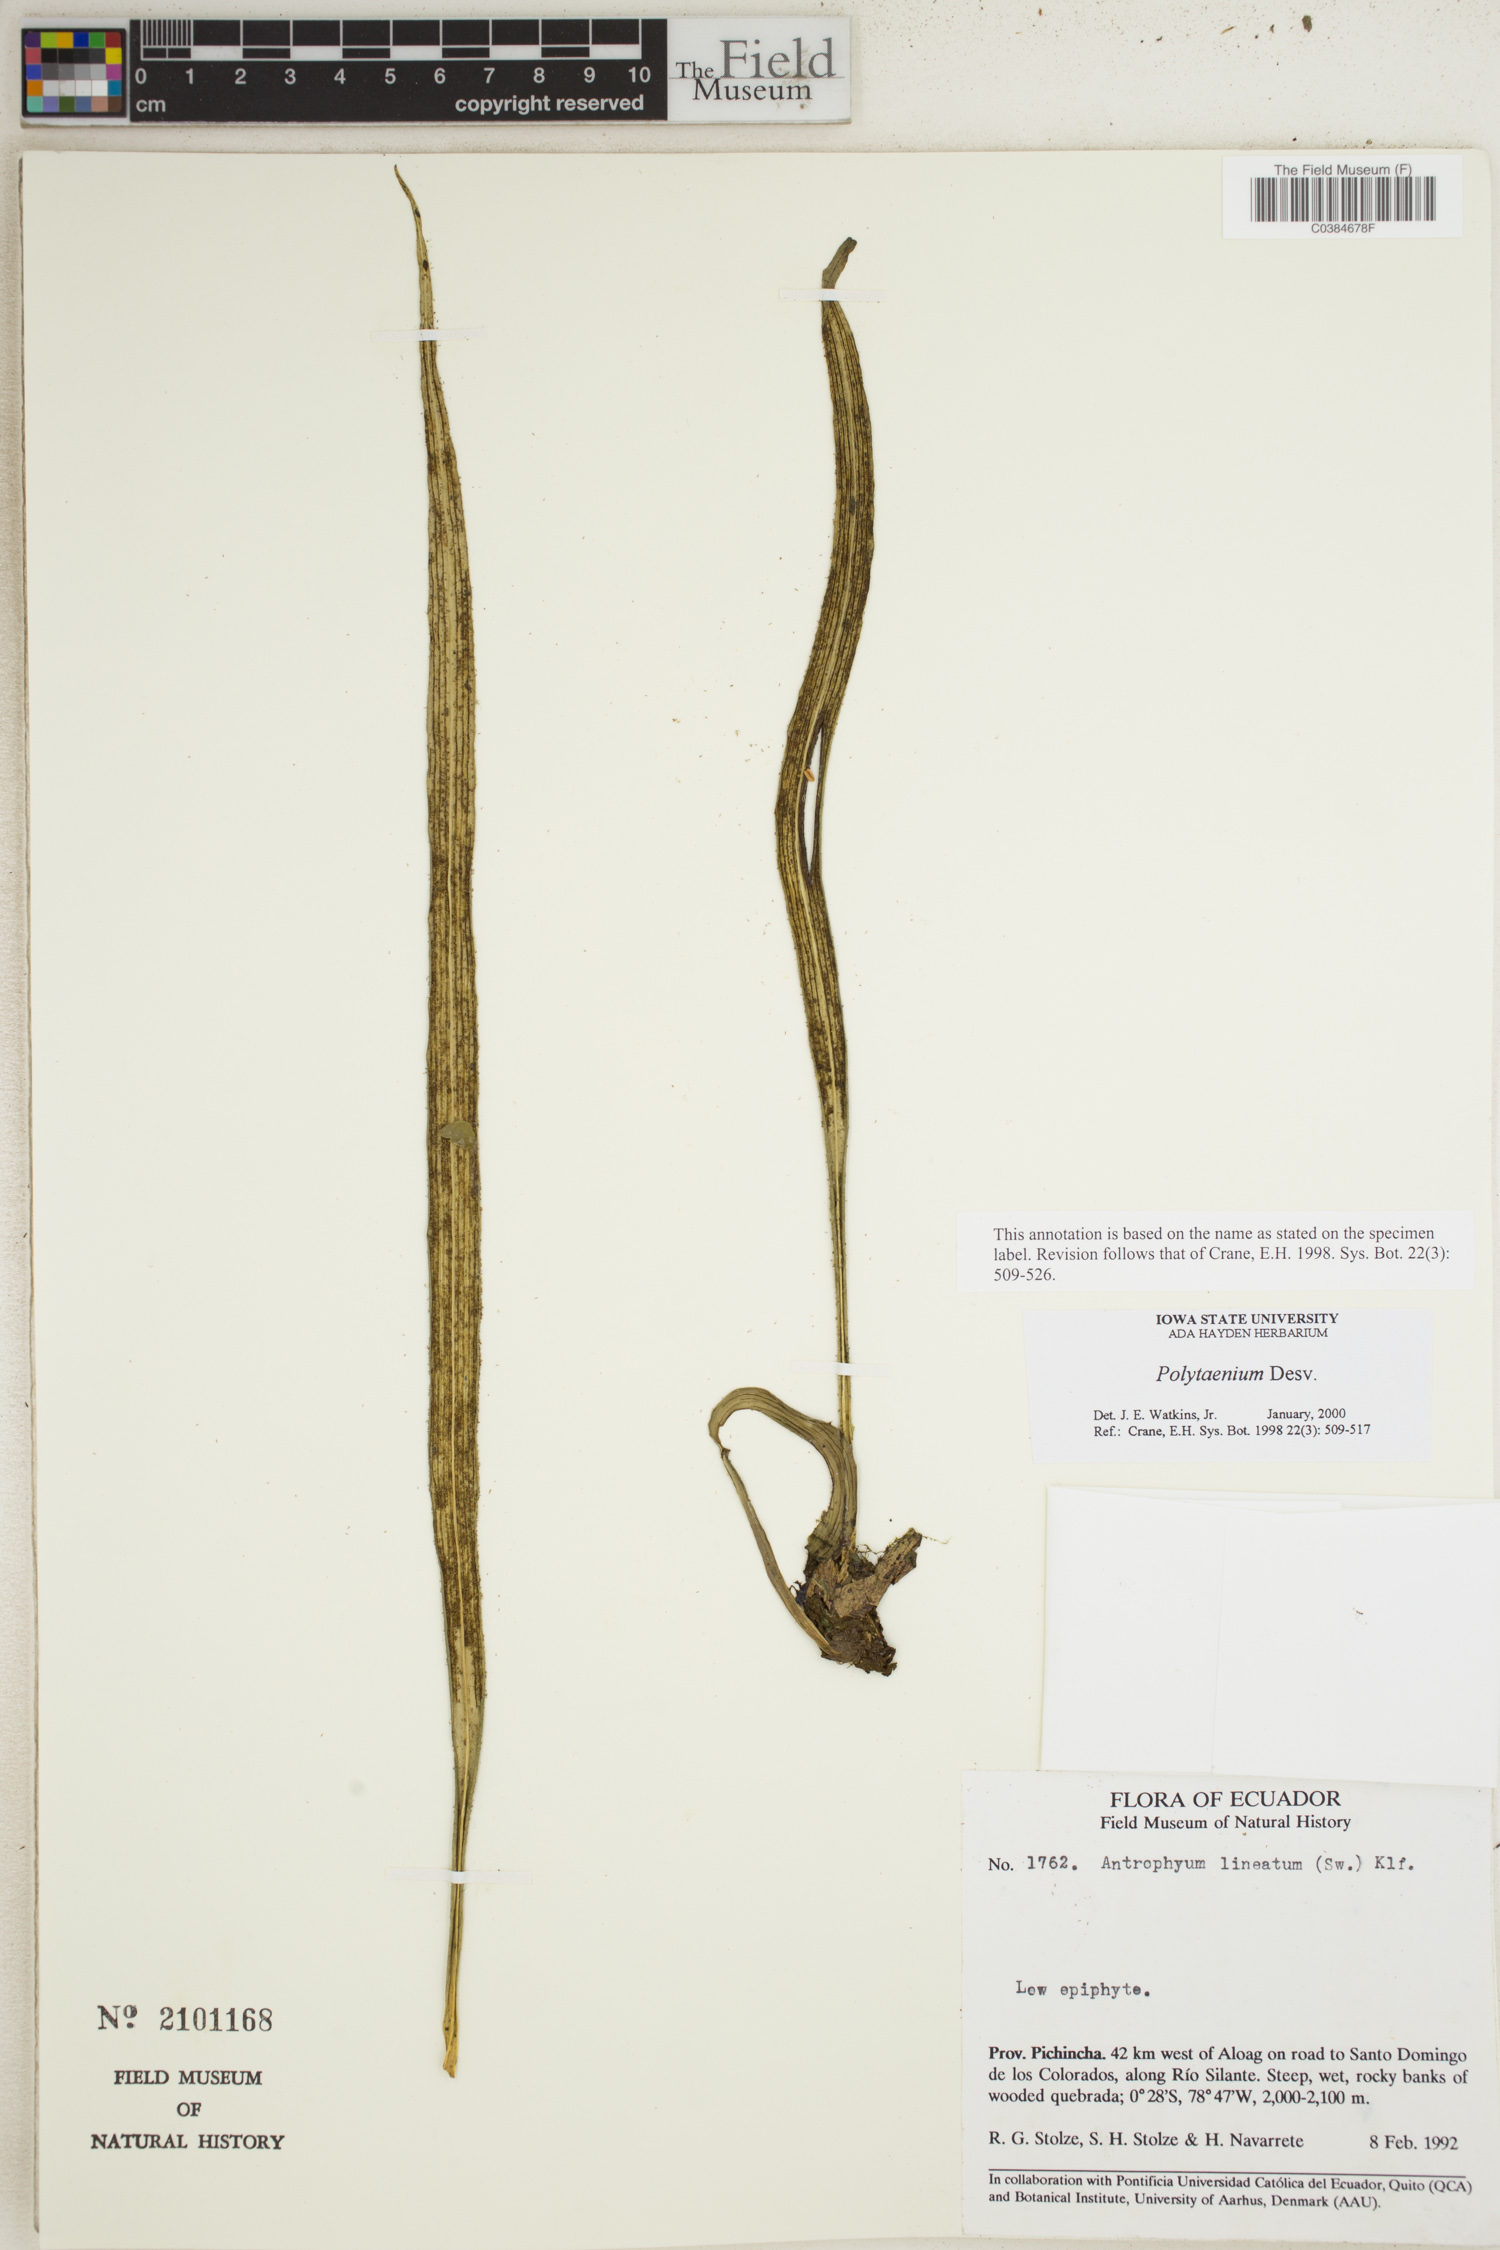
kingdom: Plantae
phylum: Tracheophyta
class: Polypodiopsida
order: Polypodiales
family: Pteridaceae
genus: Polytaenium
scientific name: Polytaenium
